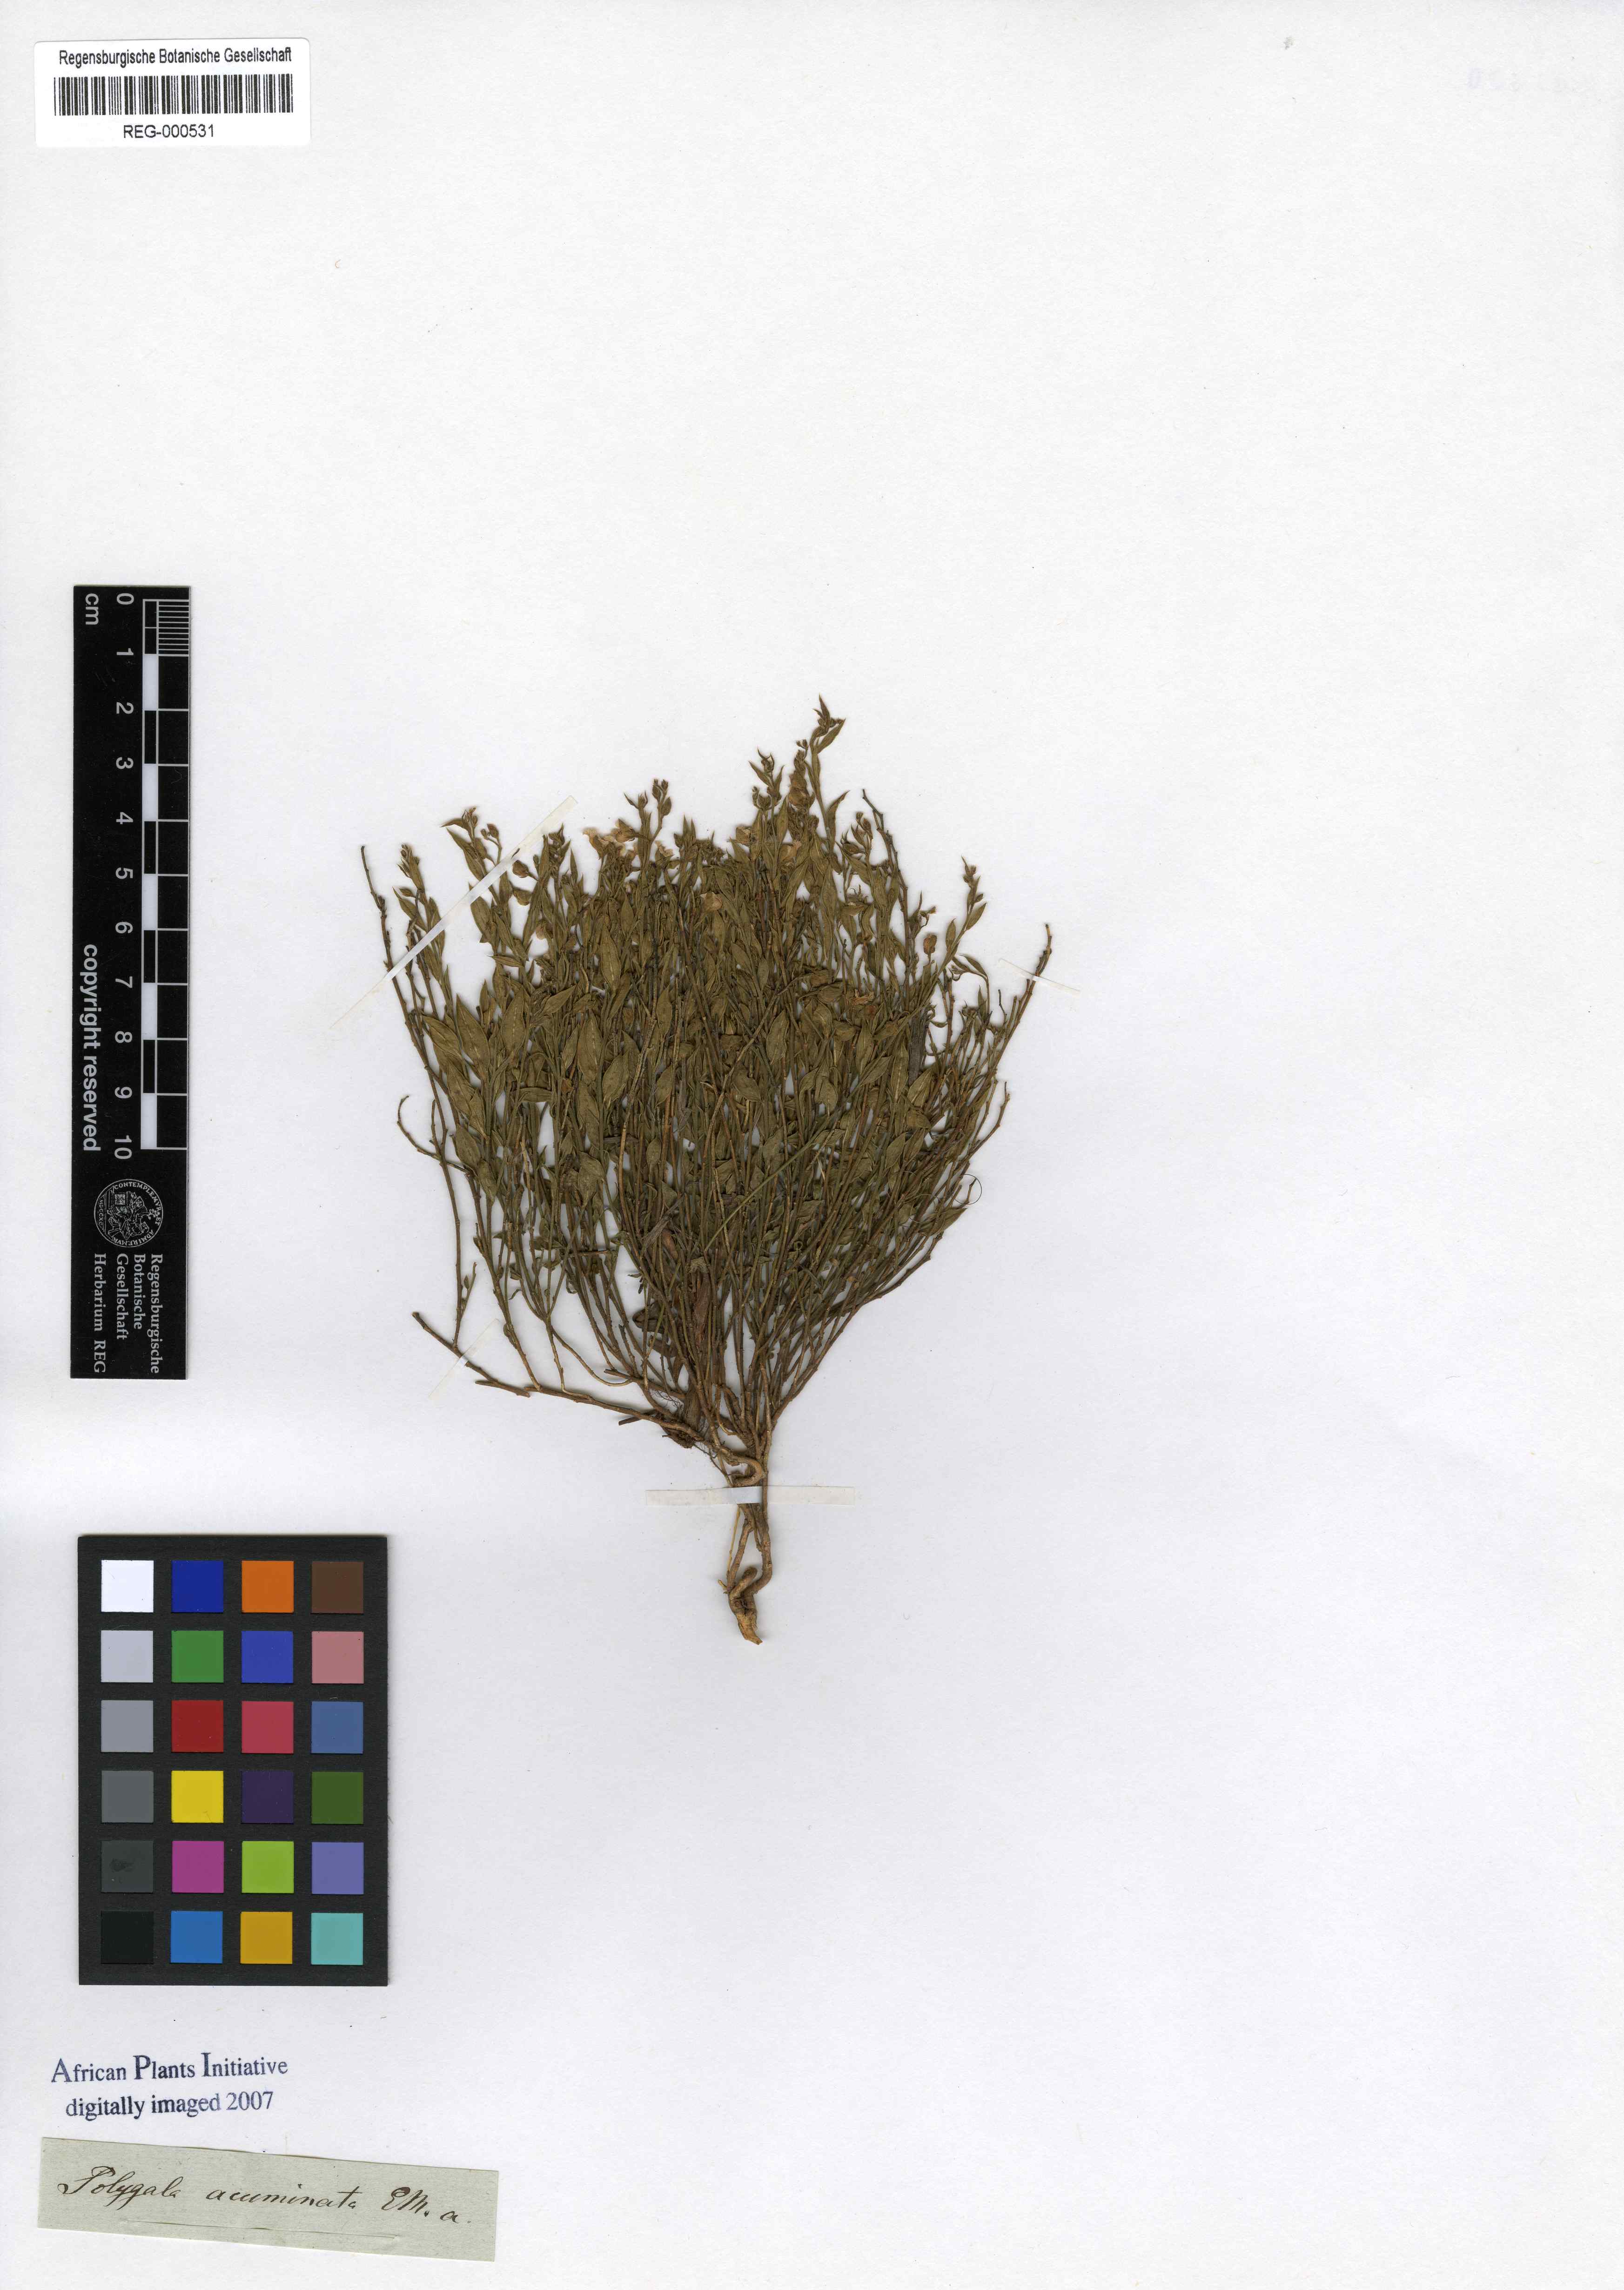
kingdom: Plantae
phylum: Tracheophyta
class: Magnoliopsida
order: Fabales
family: Polygalaceae
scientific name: Polygalaceae
